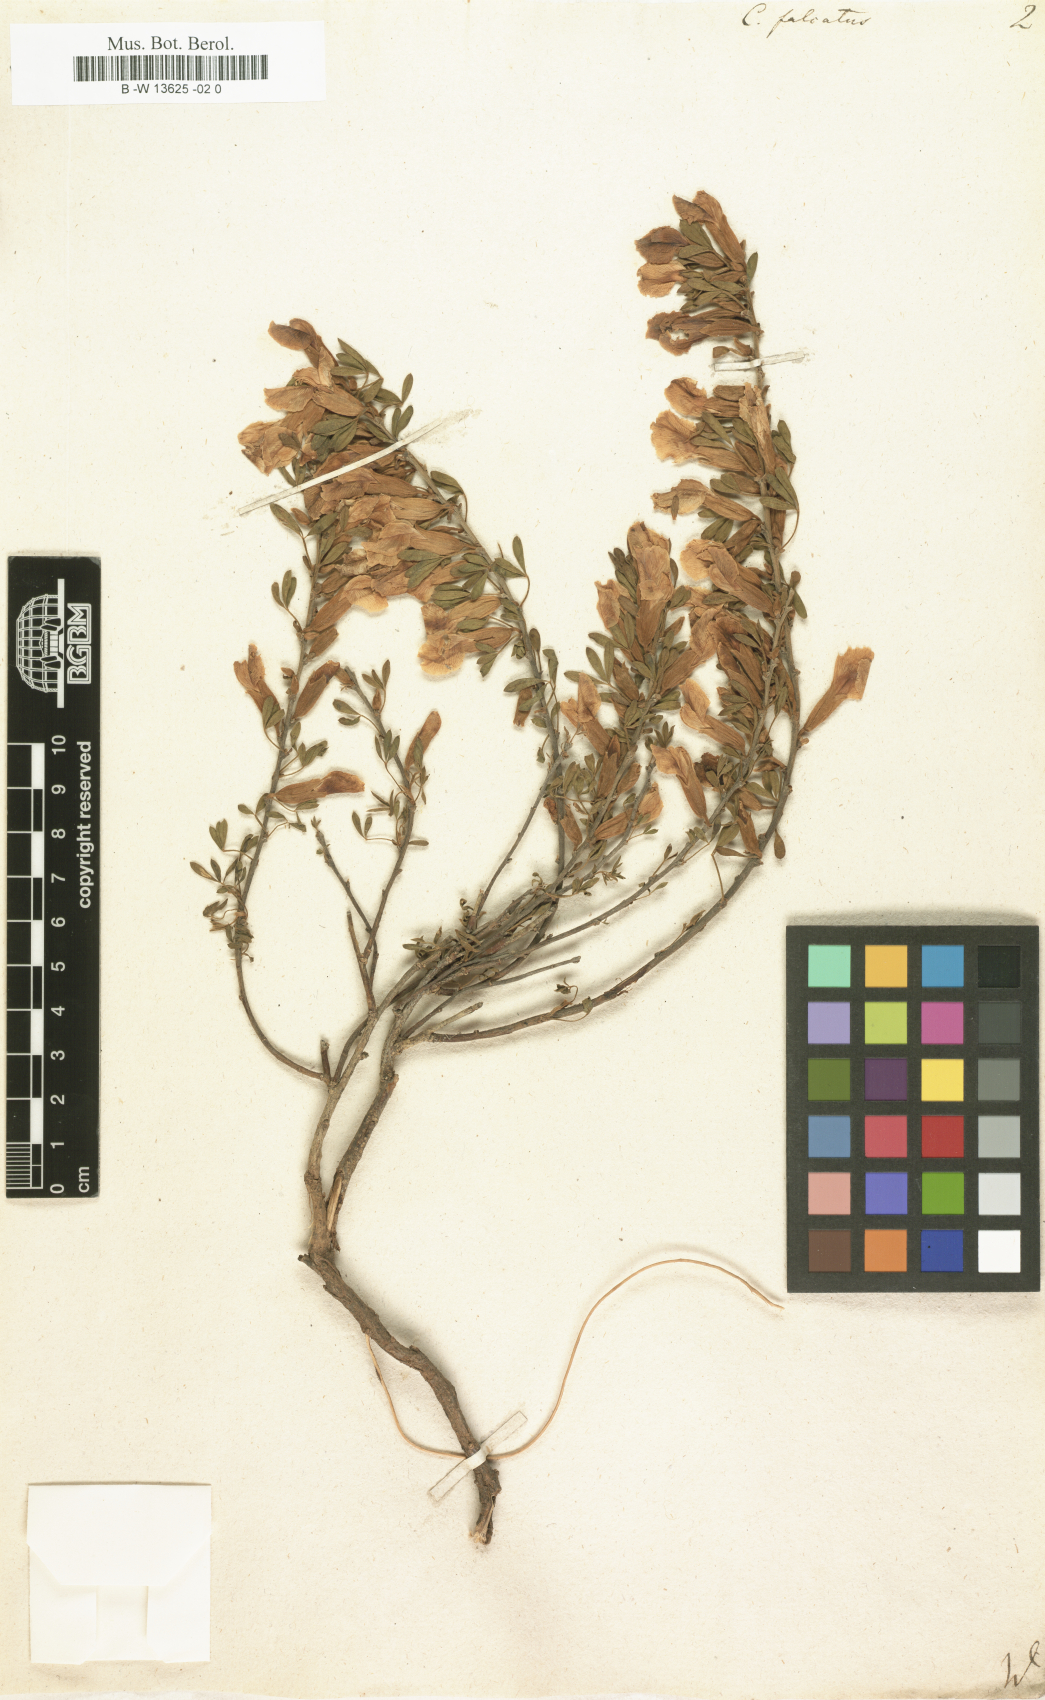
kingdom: Plantae
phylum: Tracheophyta
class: Magnoliopsida
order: Fabales
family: Fabaceae
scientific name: Fabaceae
